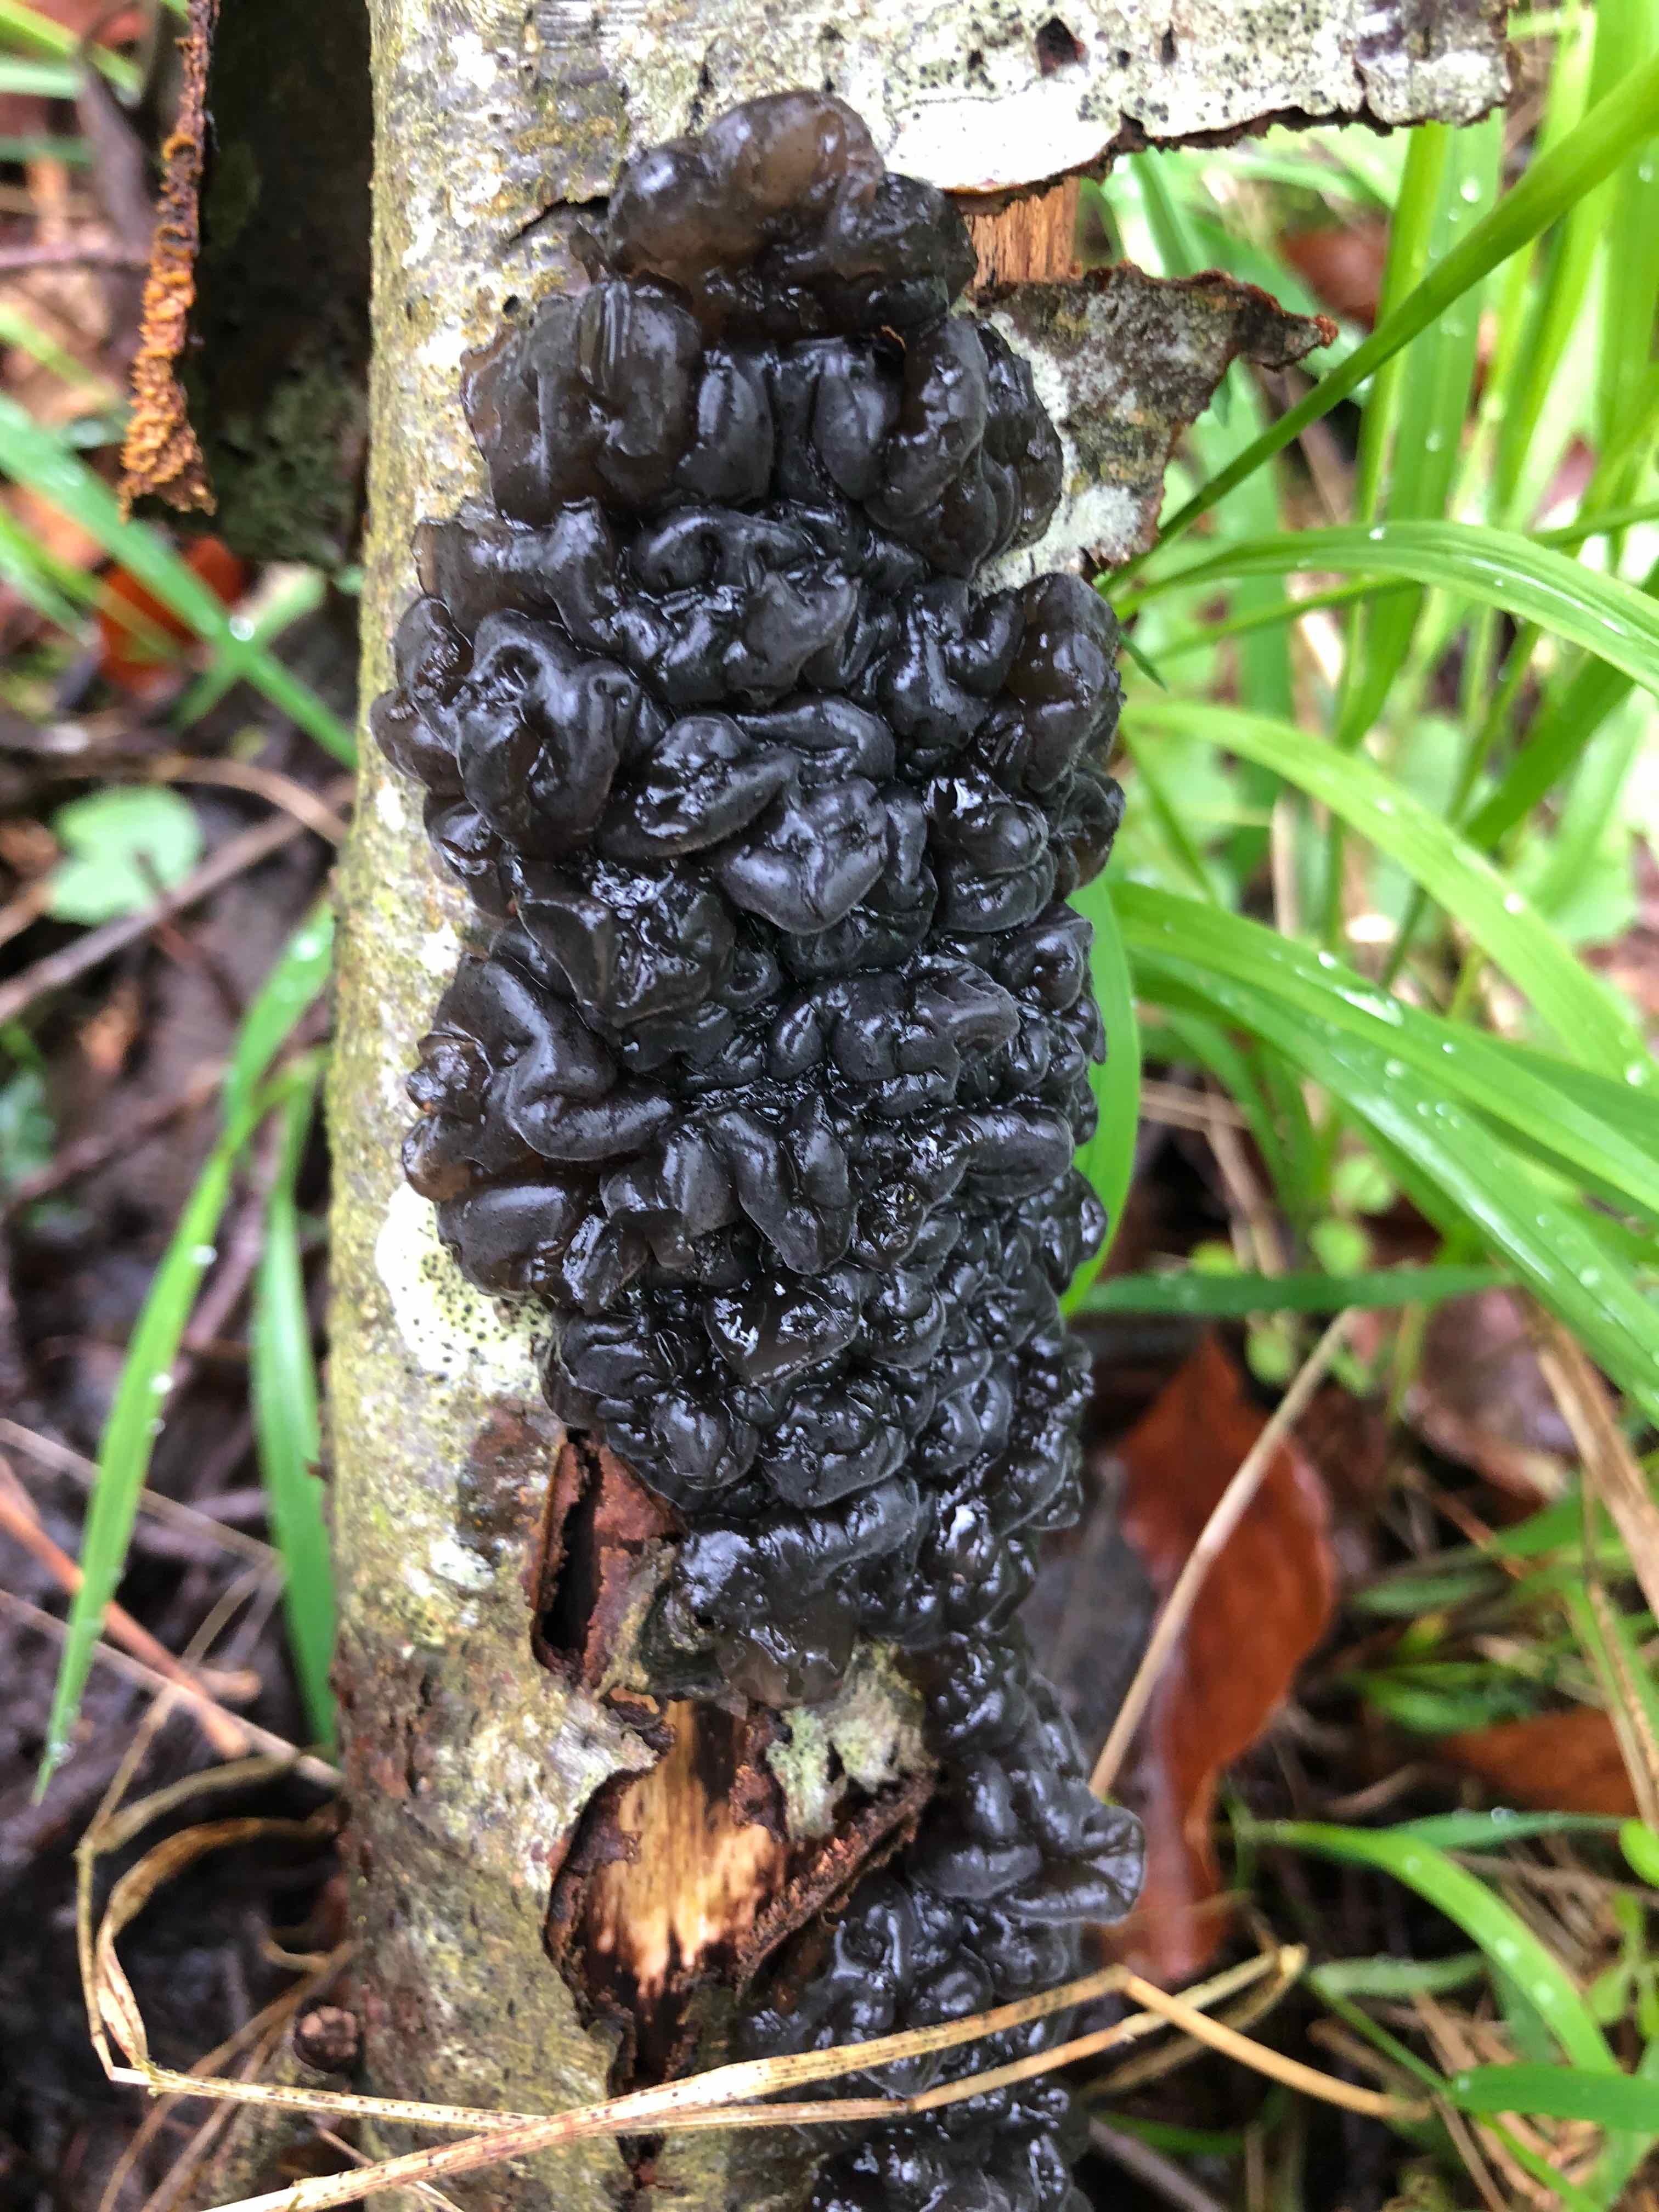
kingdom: Fungi
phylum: Basidiomycota
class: Agaricomycetes
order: Auriculariales
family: Auriculariaceae
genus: Exidia
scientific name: Exidia nigricans
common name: almindelig bævretop
